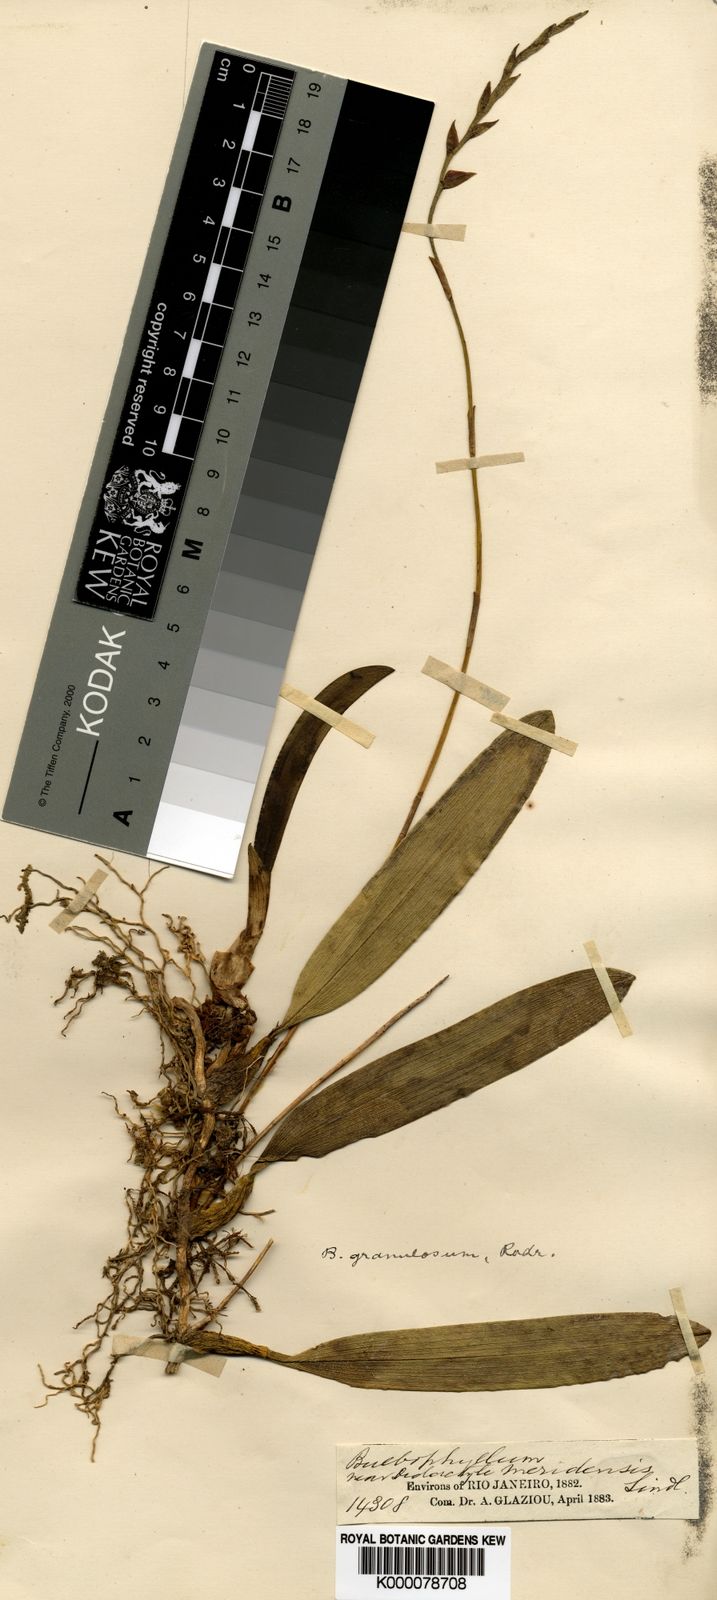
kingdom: Plantae
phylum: Tracheophyta
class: Liliopsida
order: Asparagales
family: Orchidaceae
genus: Bulbophyllum
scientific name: Bulbophyllum granulosum
